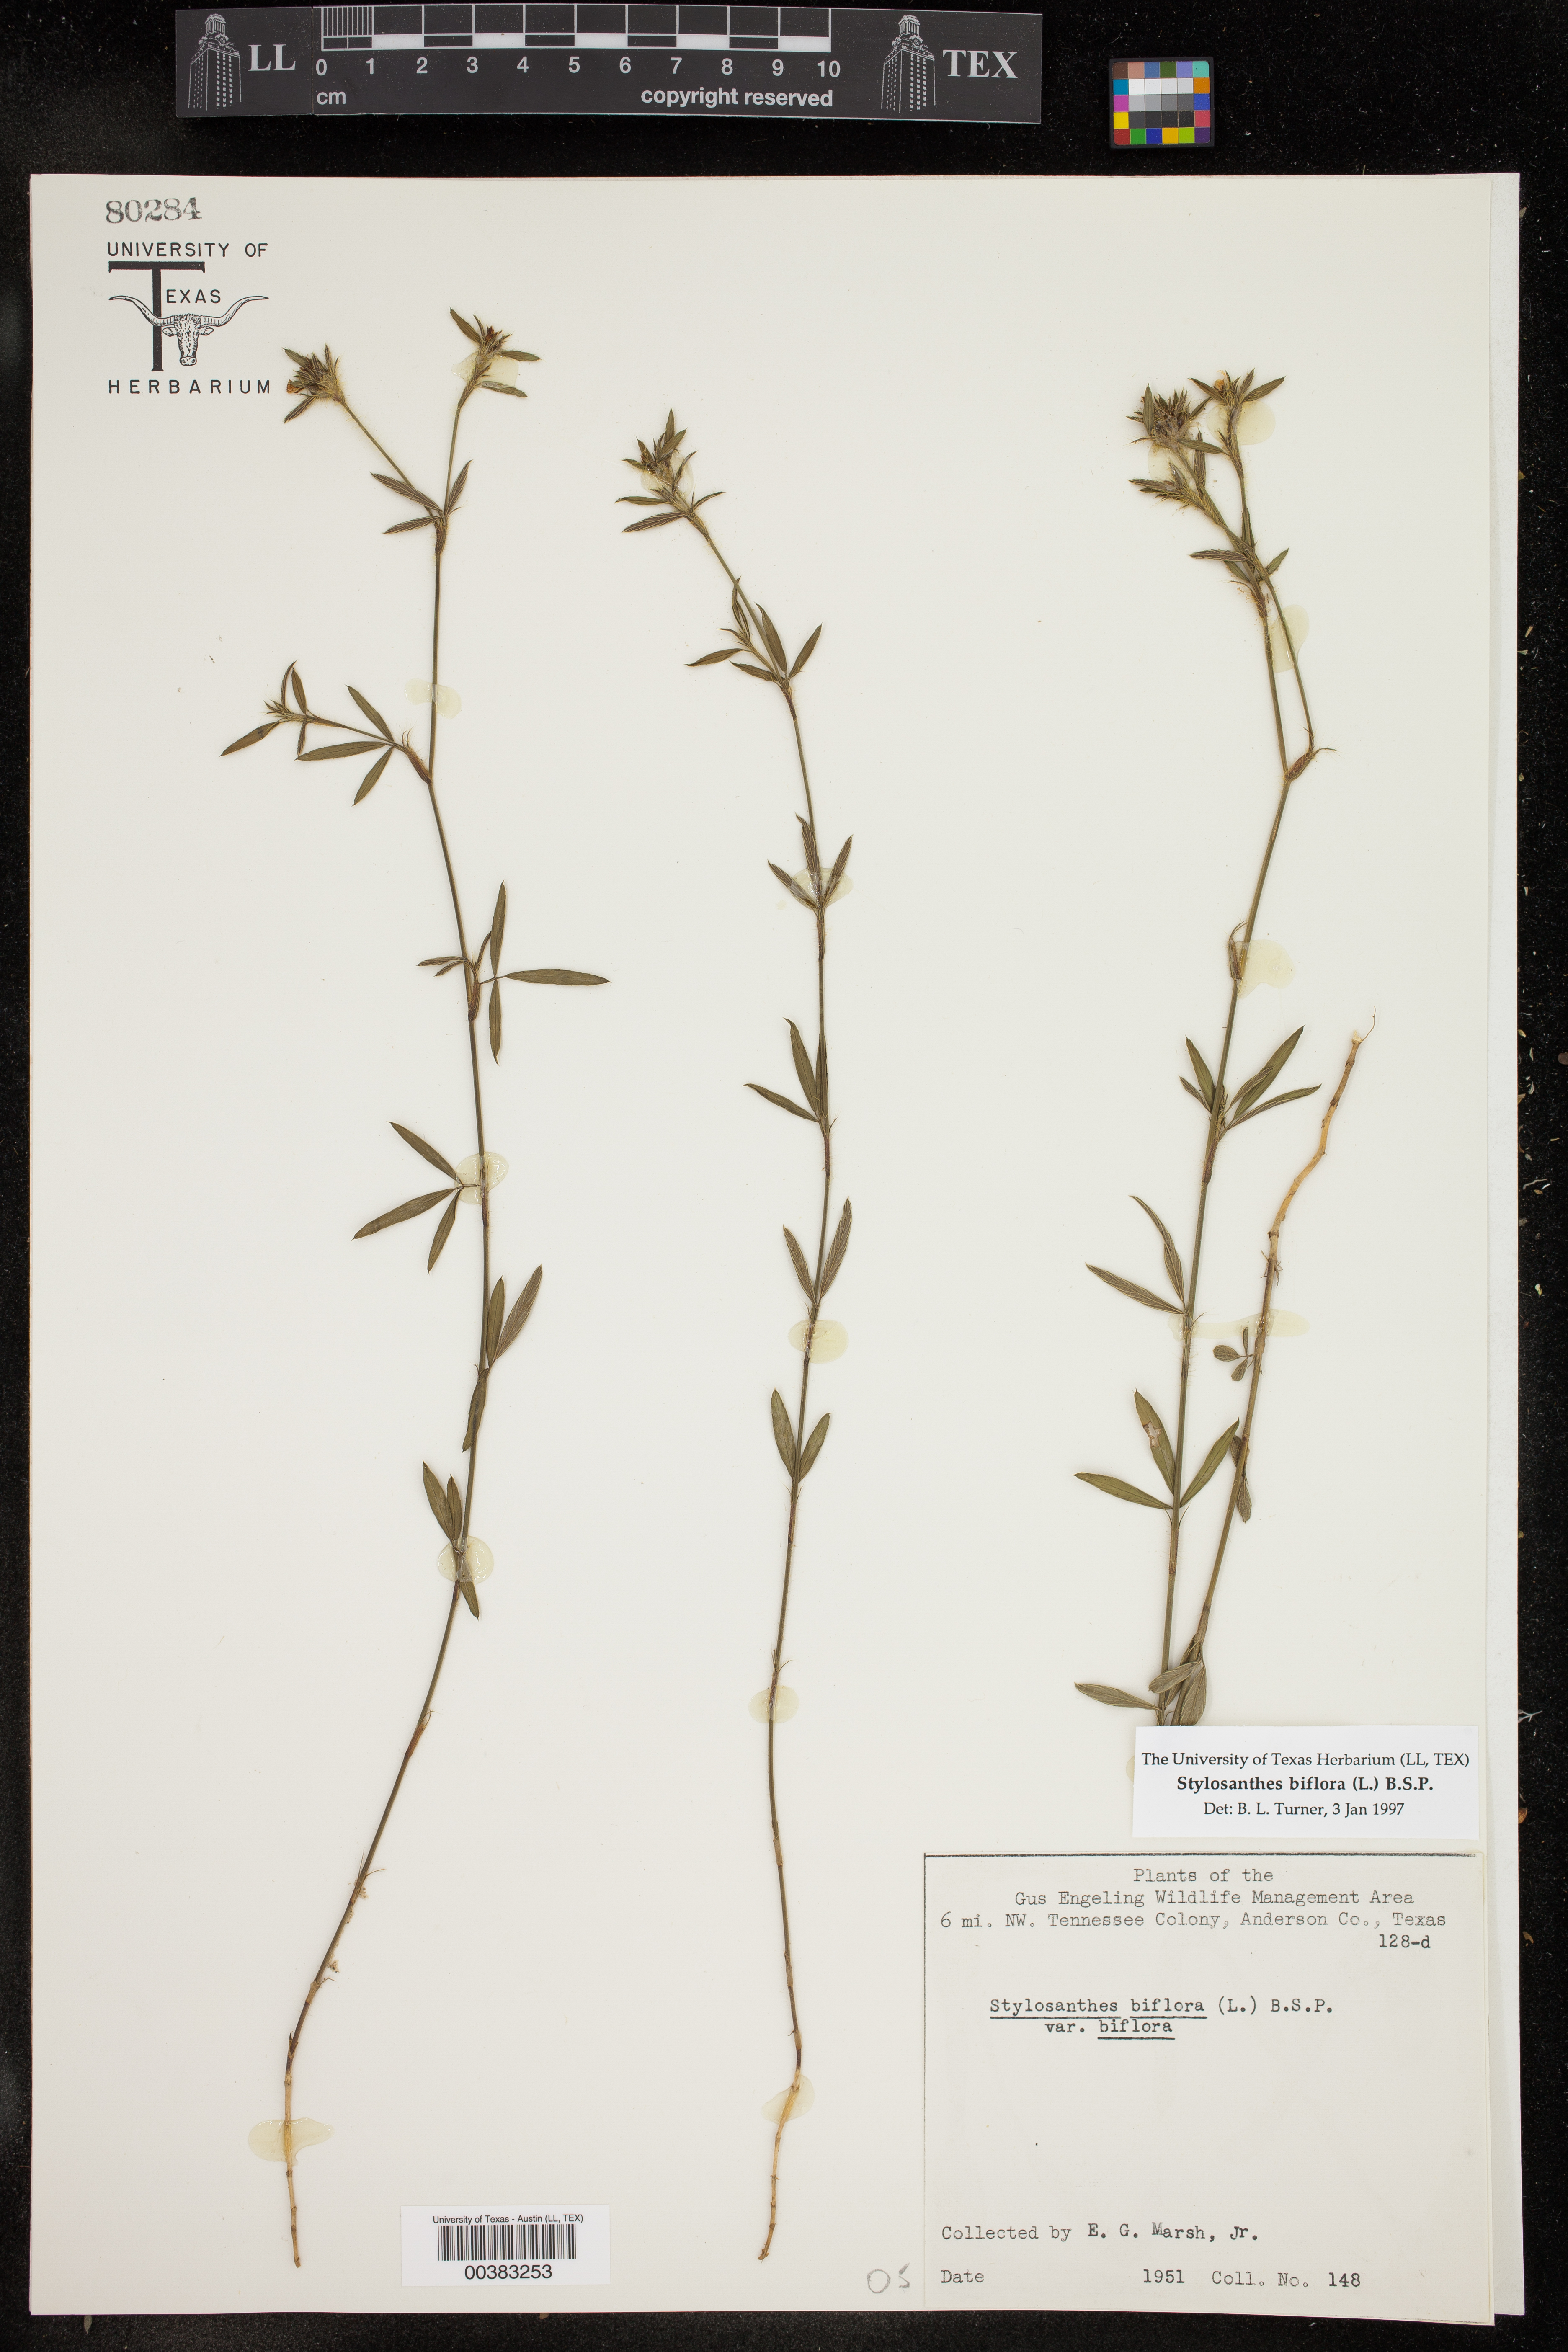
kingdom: Plantae
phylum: Tracheophyta
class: Magnoliopsida
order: Fabales
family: Fabaceae
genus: Stylosanthes
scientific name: Stylosanthes biflora
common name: Two-flower pencil-flower
